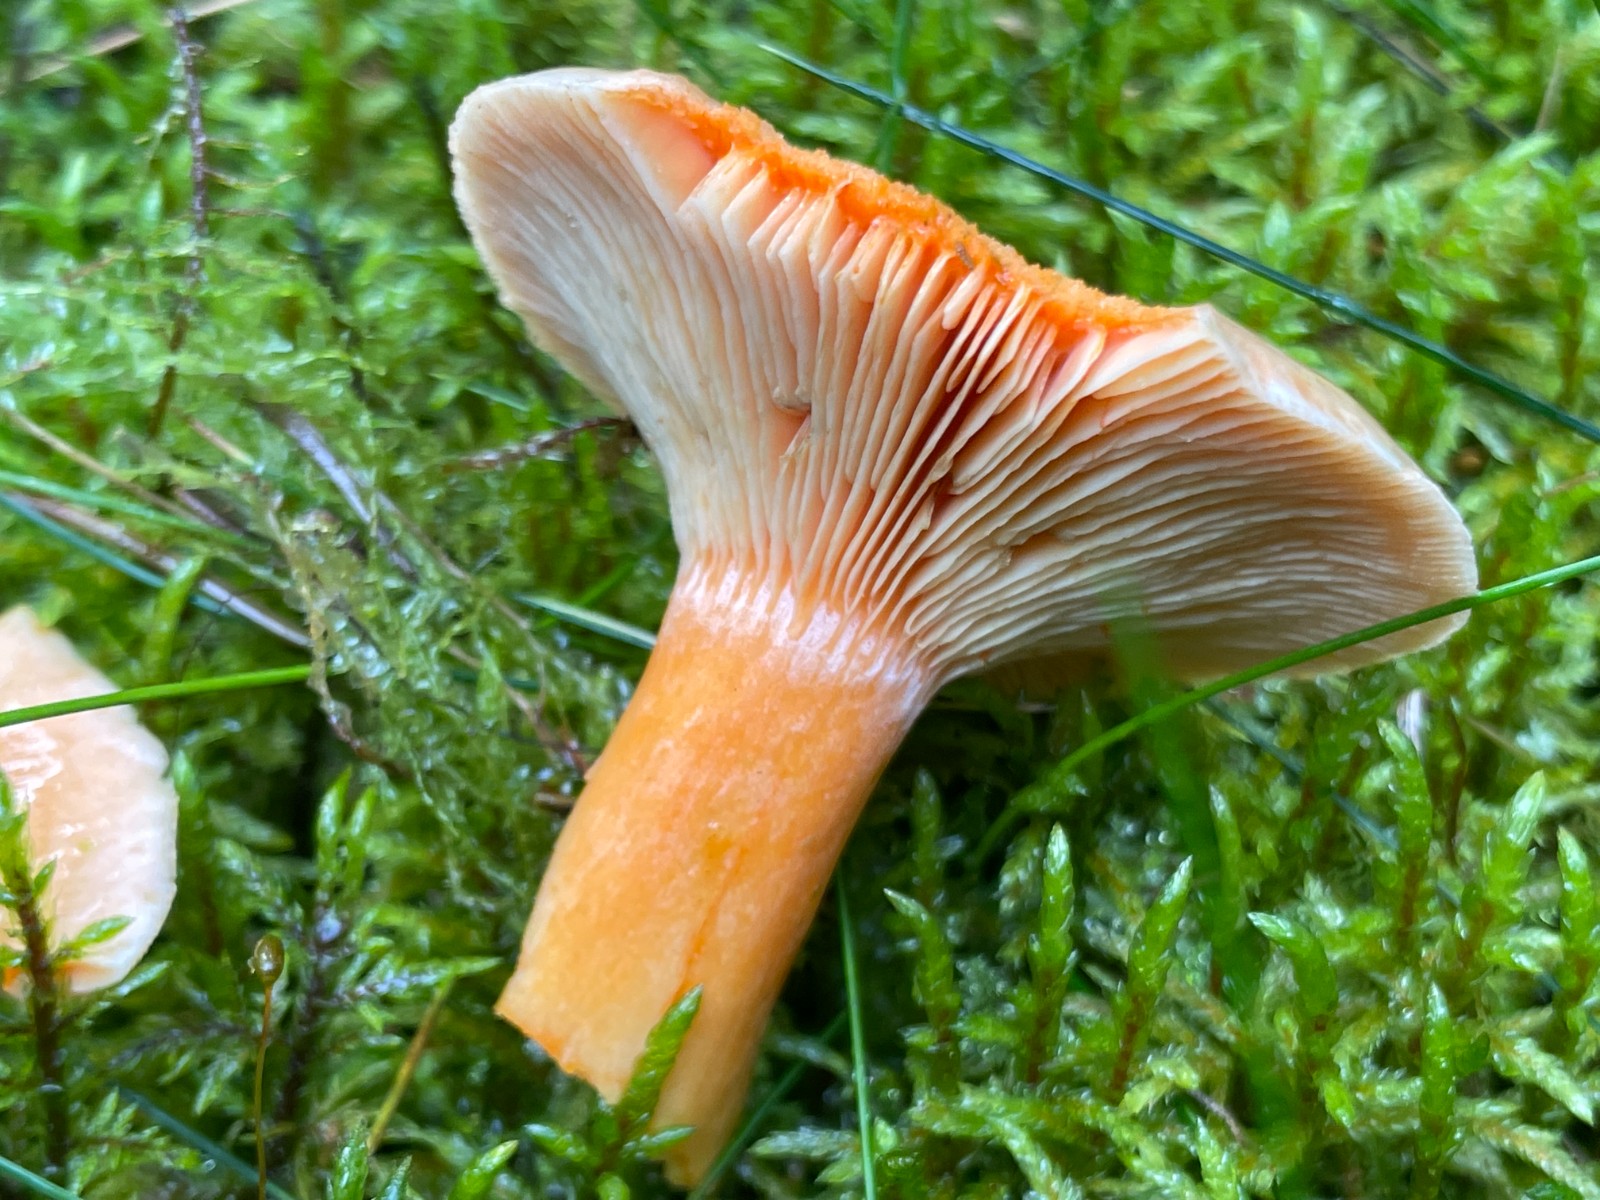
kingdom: Fungi
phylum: Basidiomycota
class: Agaricomycetes
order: Russulales
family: Russulaceae
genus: Lactarius
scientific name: Lactarius deterrimus
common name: gran-mælkehat
